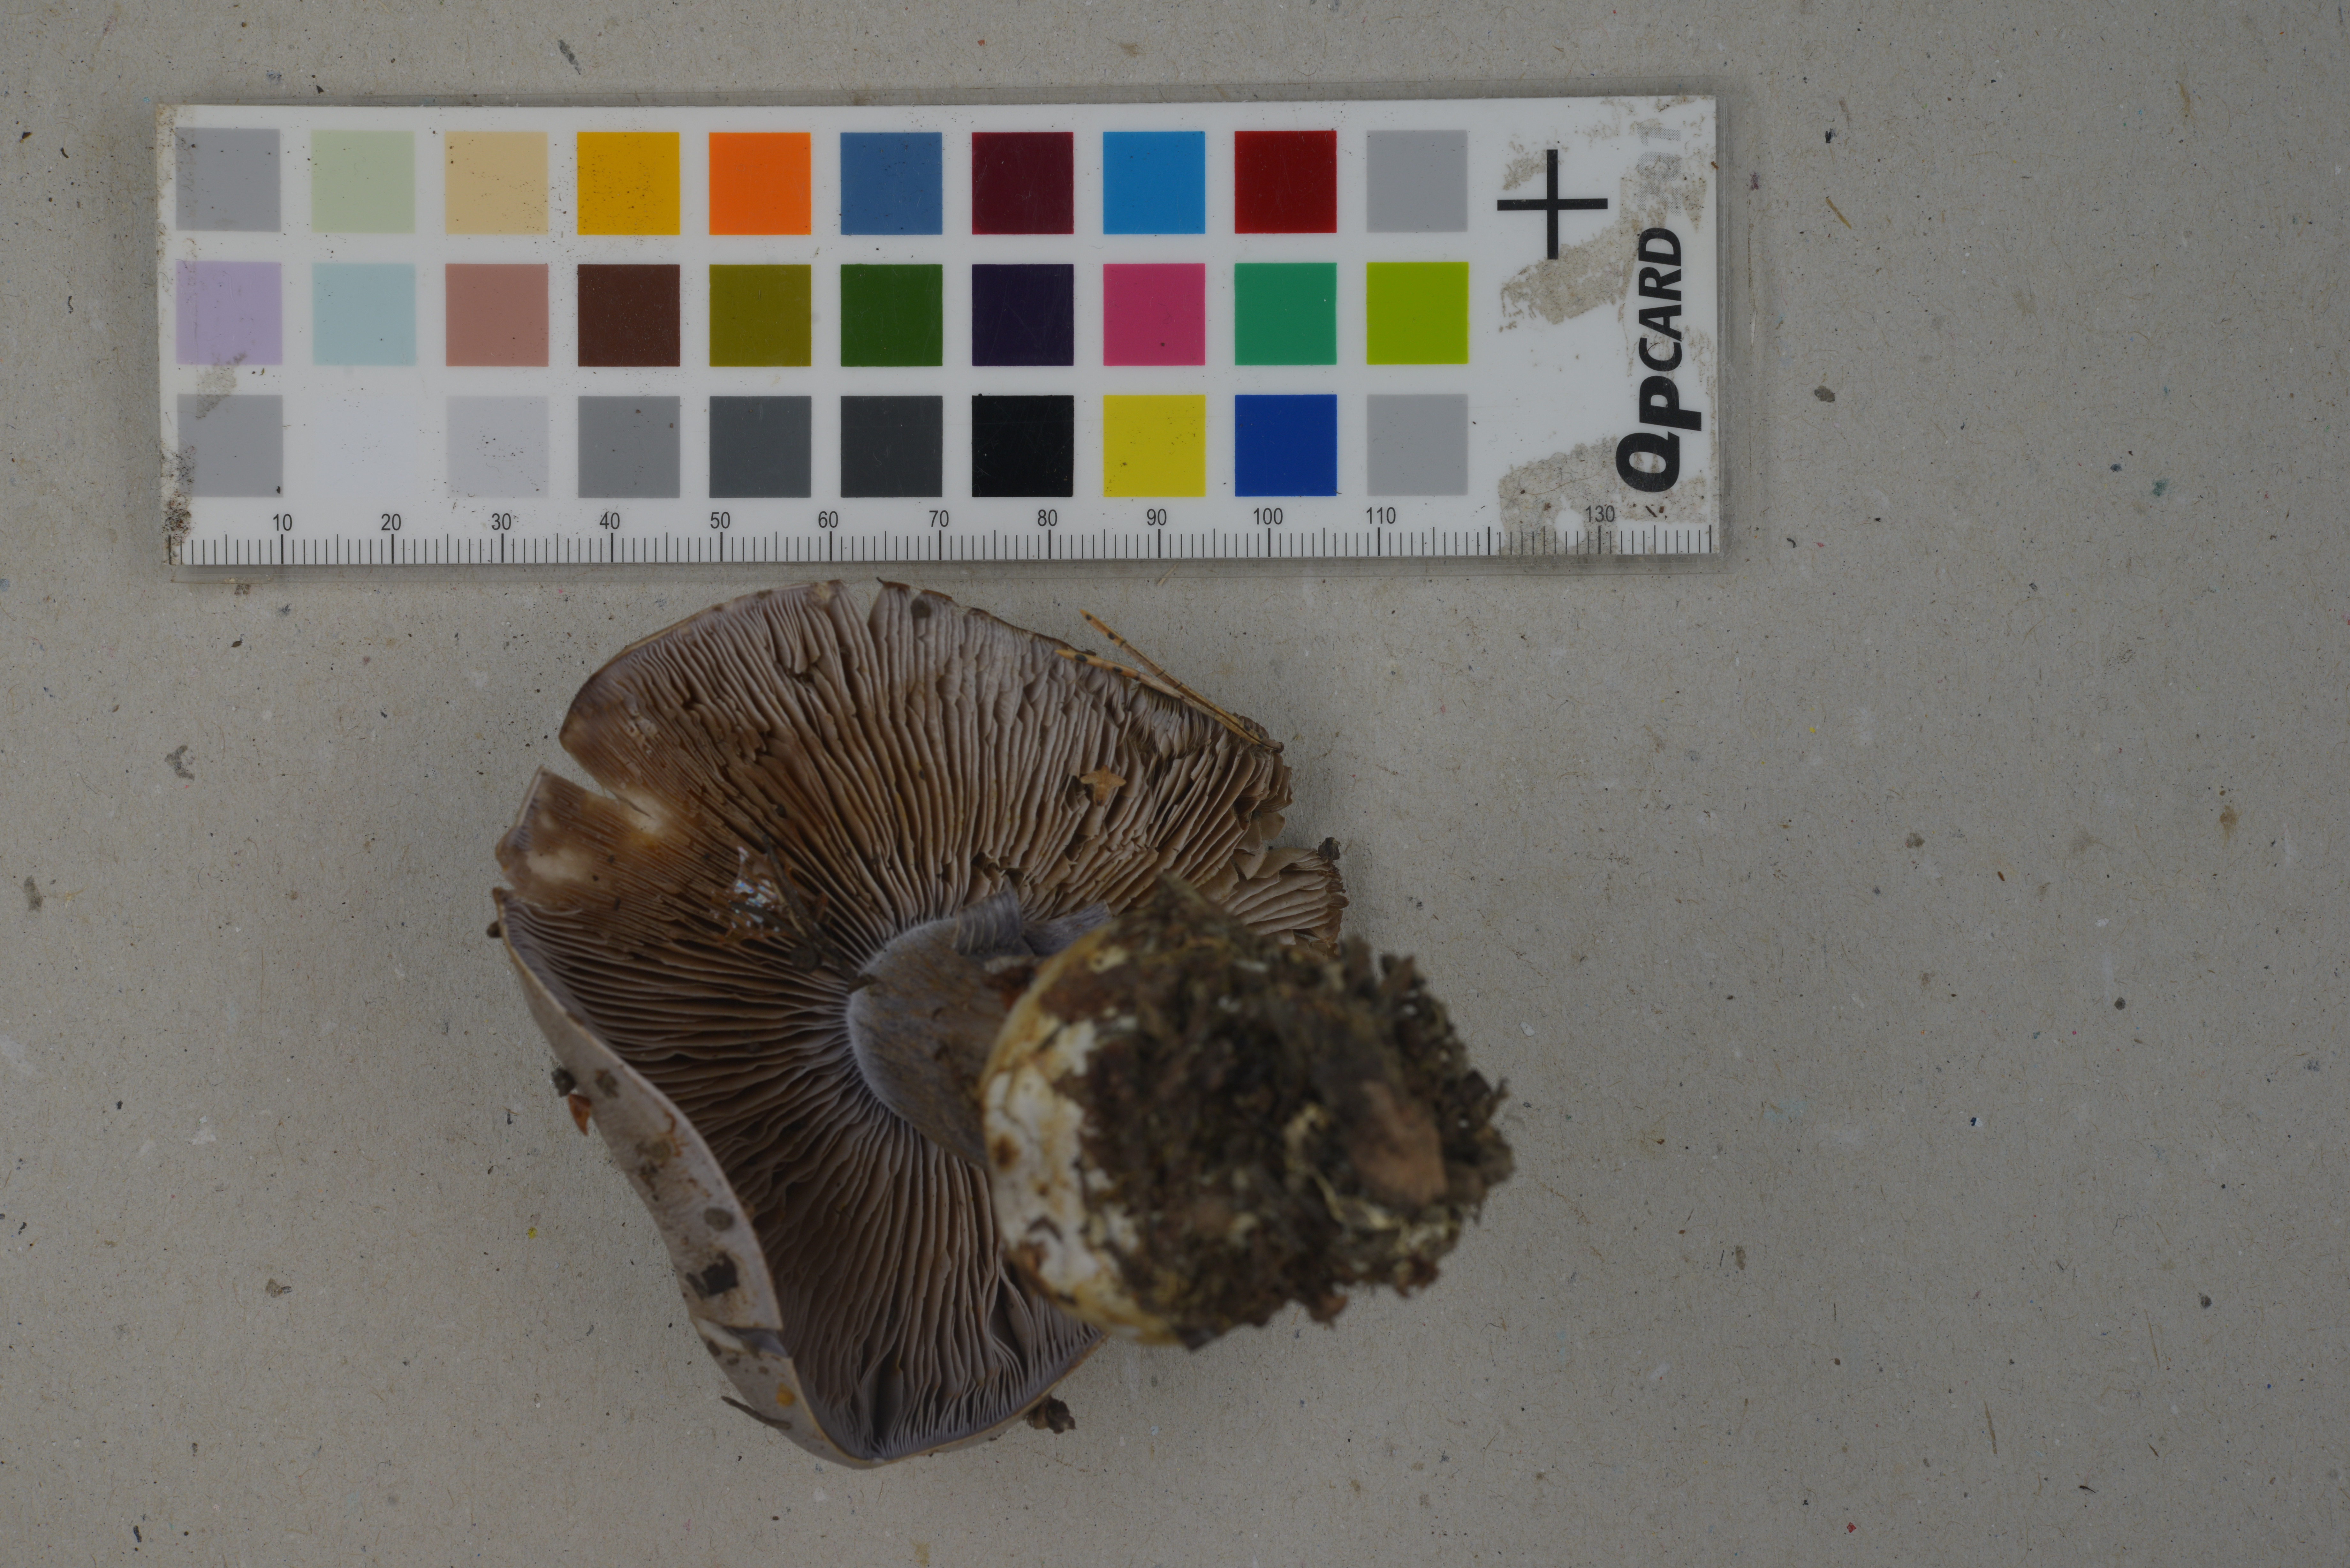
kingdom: Fungi
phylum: Basidiomycota
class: Agaricomycetes
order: Agaricales
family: Cortinariaceae
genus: Phlegmacium
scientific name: Phlegmacium coerulescentium
